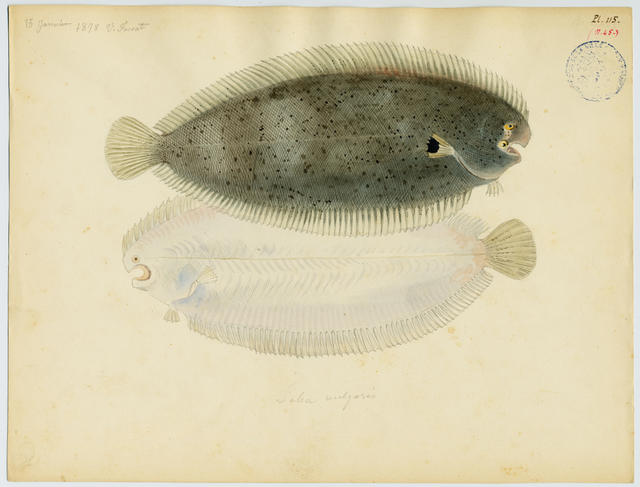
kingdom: Animalia
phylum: Chordata
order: Pleuronectiformes
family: Soleidae
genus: Pegusa
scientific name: Pegusa lascaris
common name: Sand sole
